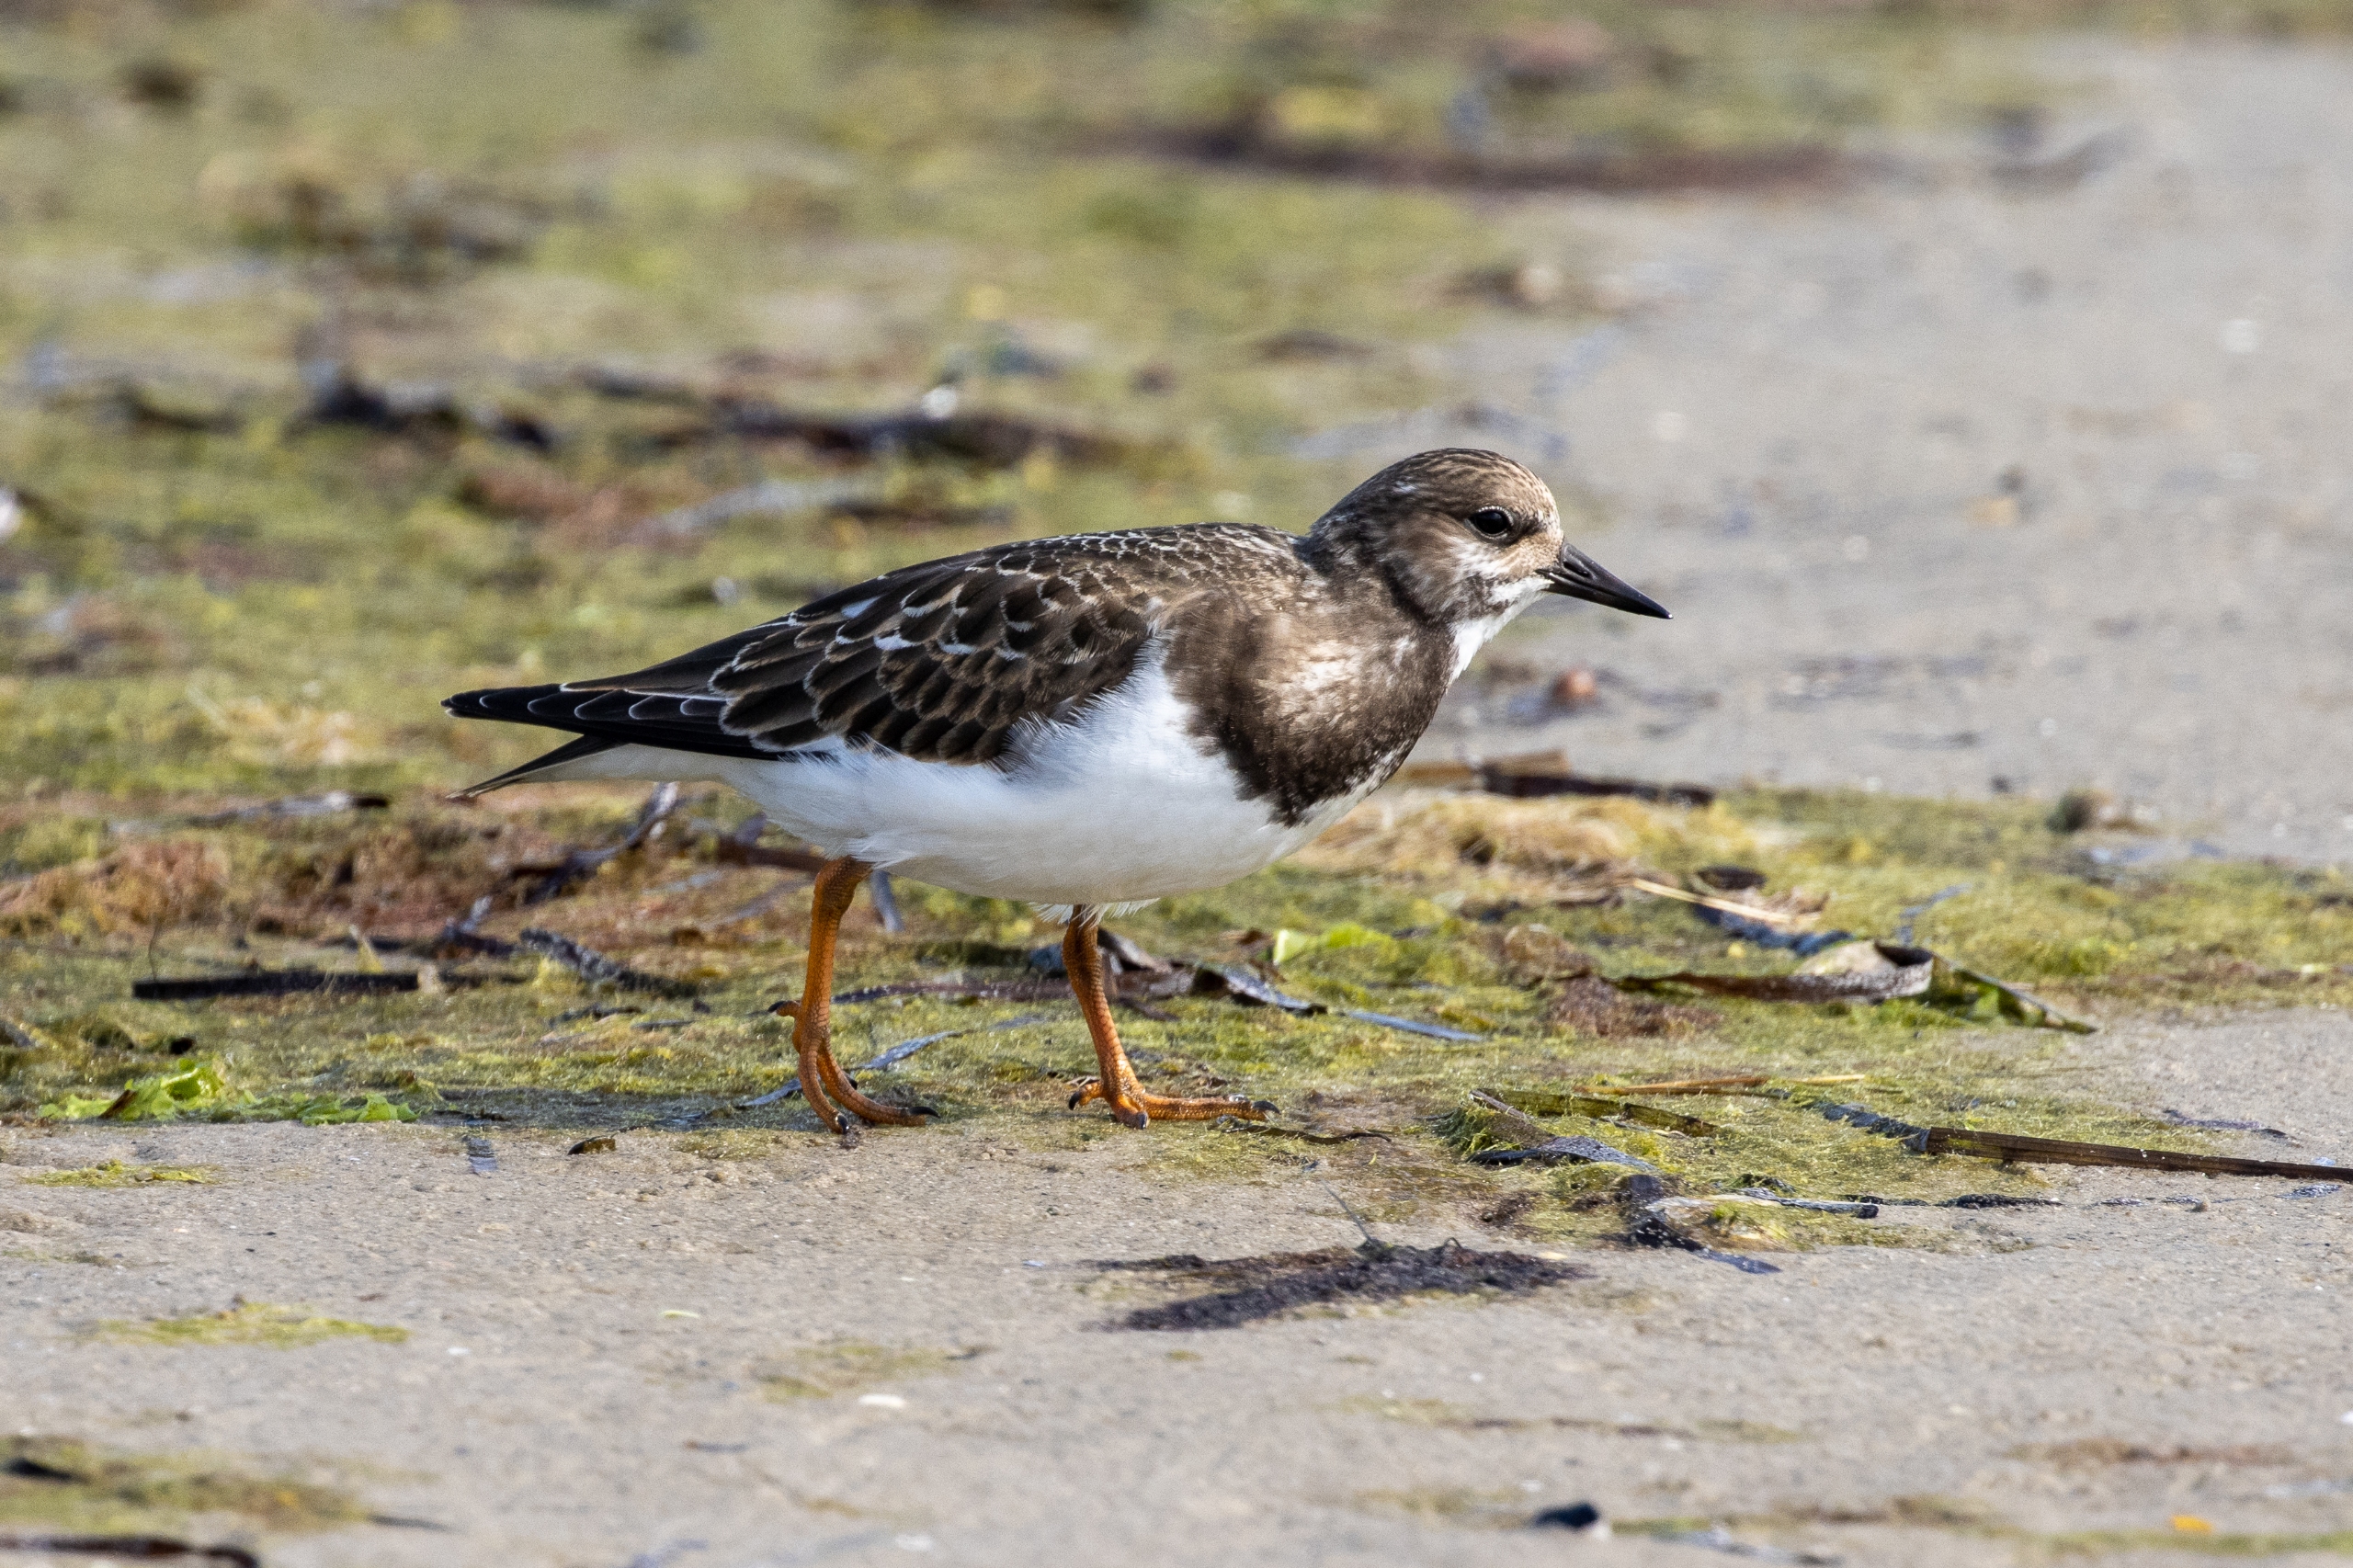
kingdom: Animalia
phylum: Chordata
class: Aves
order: Charadriiformes
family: Scolopacidae
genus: Arenaria
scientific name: Arenaria interpres
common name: Stenvender
